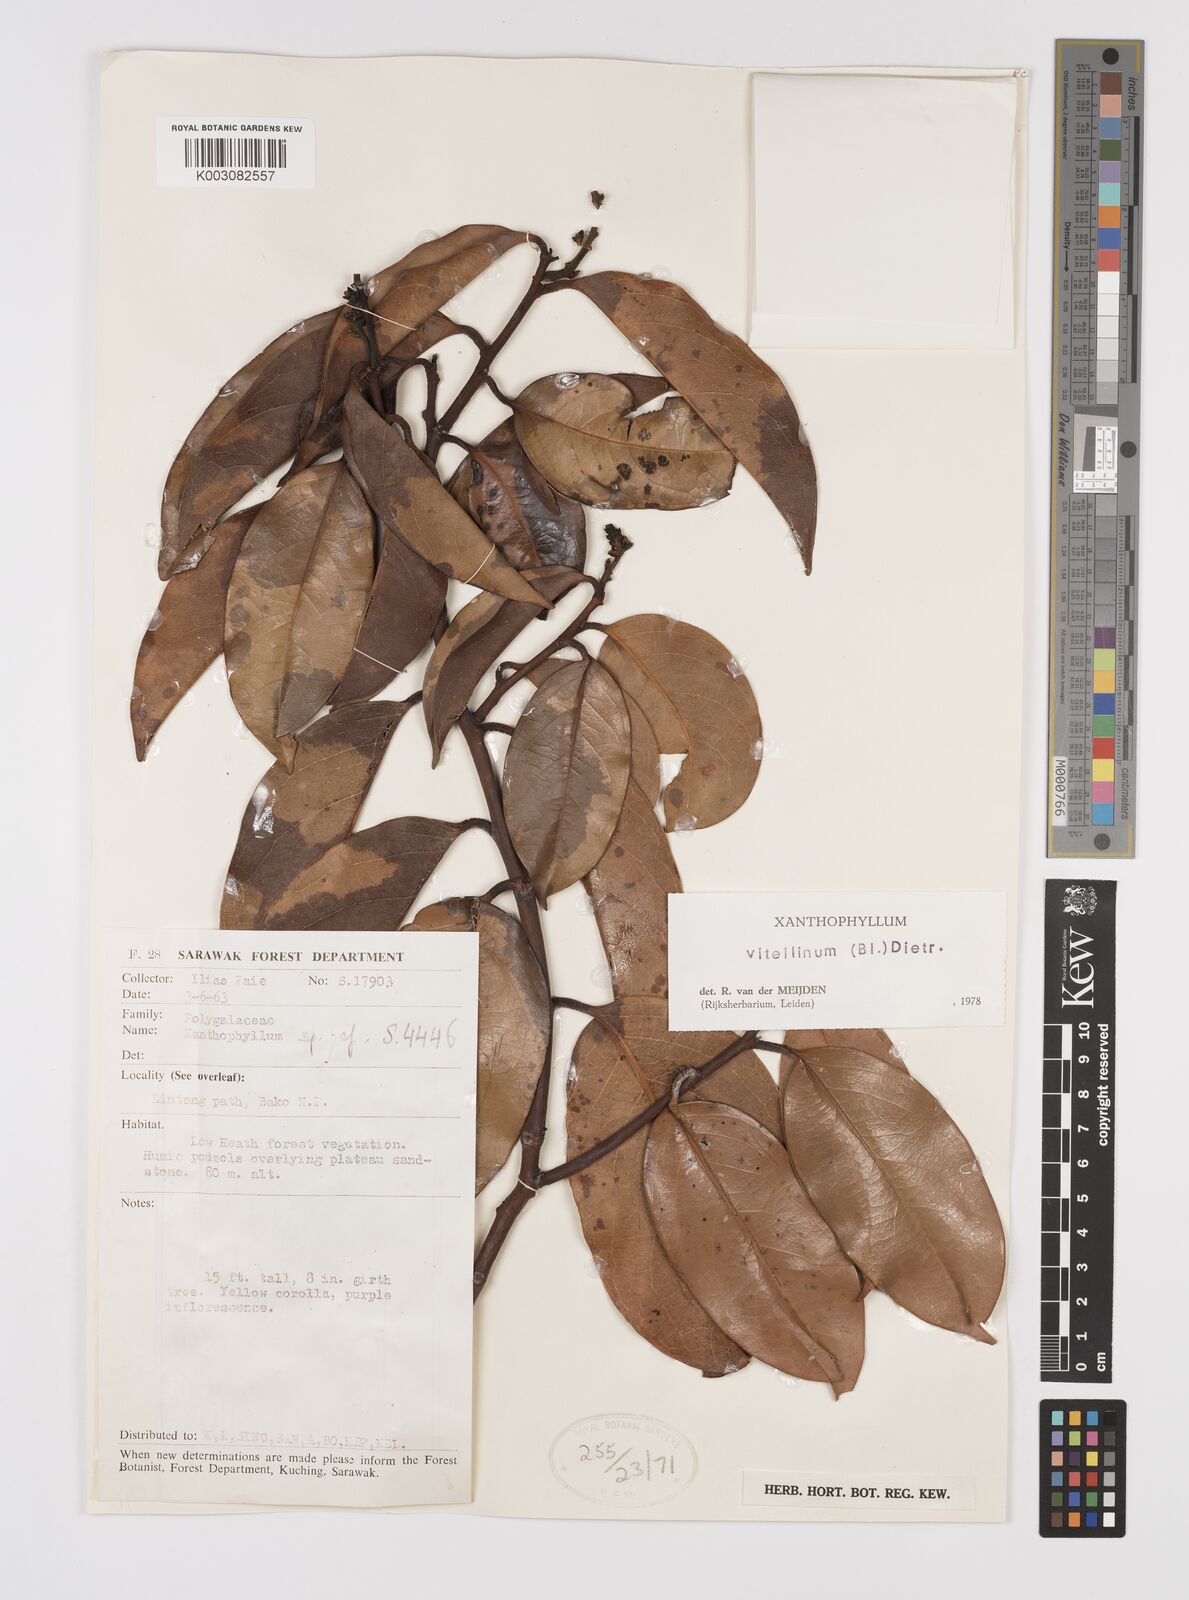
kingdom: Plantae
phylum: Tracheophyta
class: Magnoliopsida
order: Fabales
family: Polygalaceae
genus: Xanthophyllum
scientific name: Xanthophyllum vitellinum
